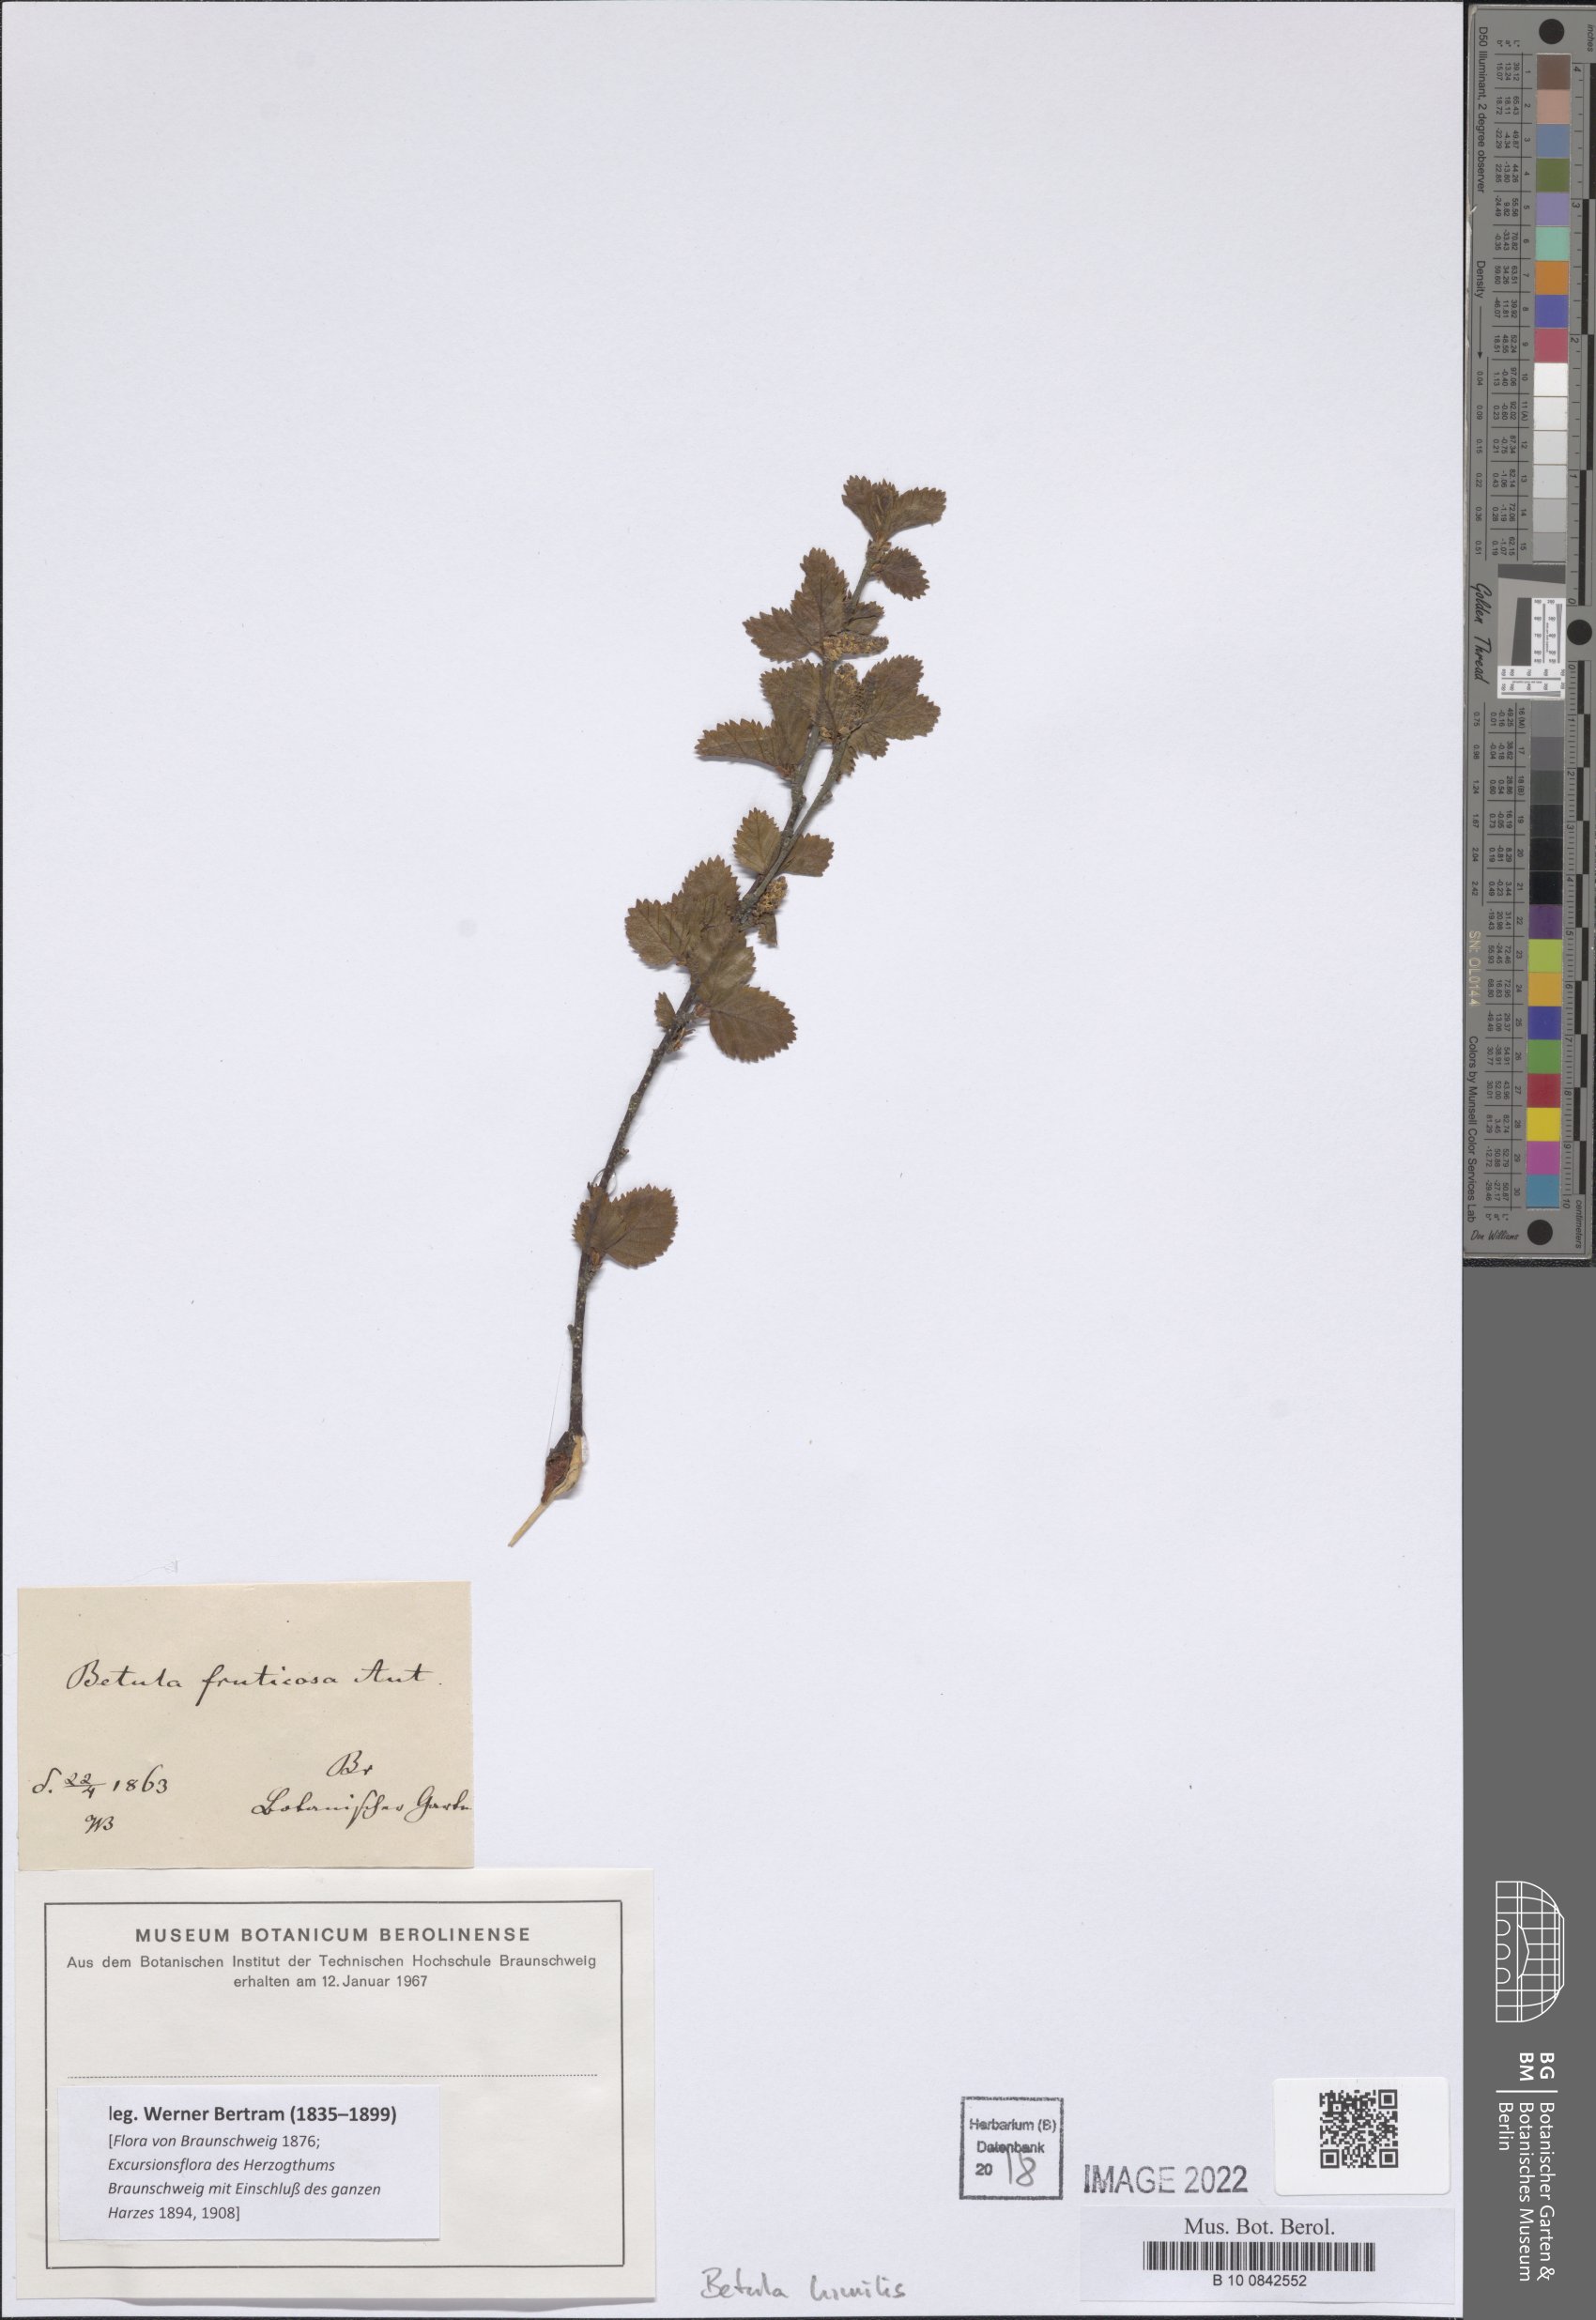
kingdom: Plantae
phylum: Tracheophyta
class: Magnoliopsida
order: Fagales
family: Betulaceae
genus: Betula
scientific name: Betula fruticosa
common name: Japanese bog birch
